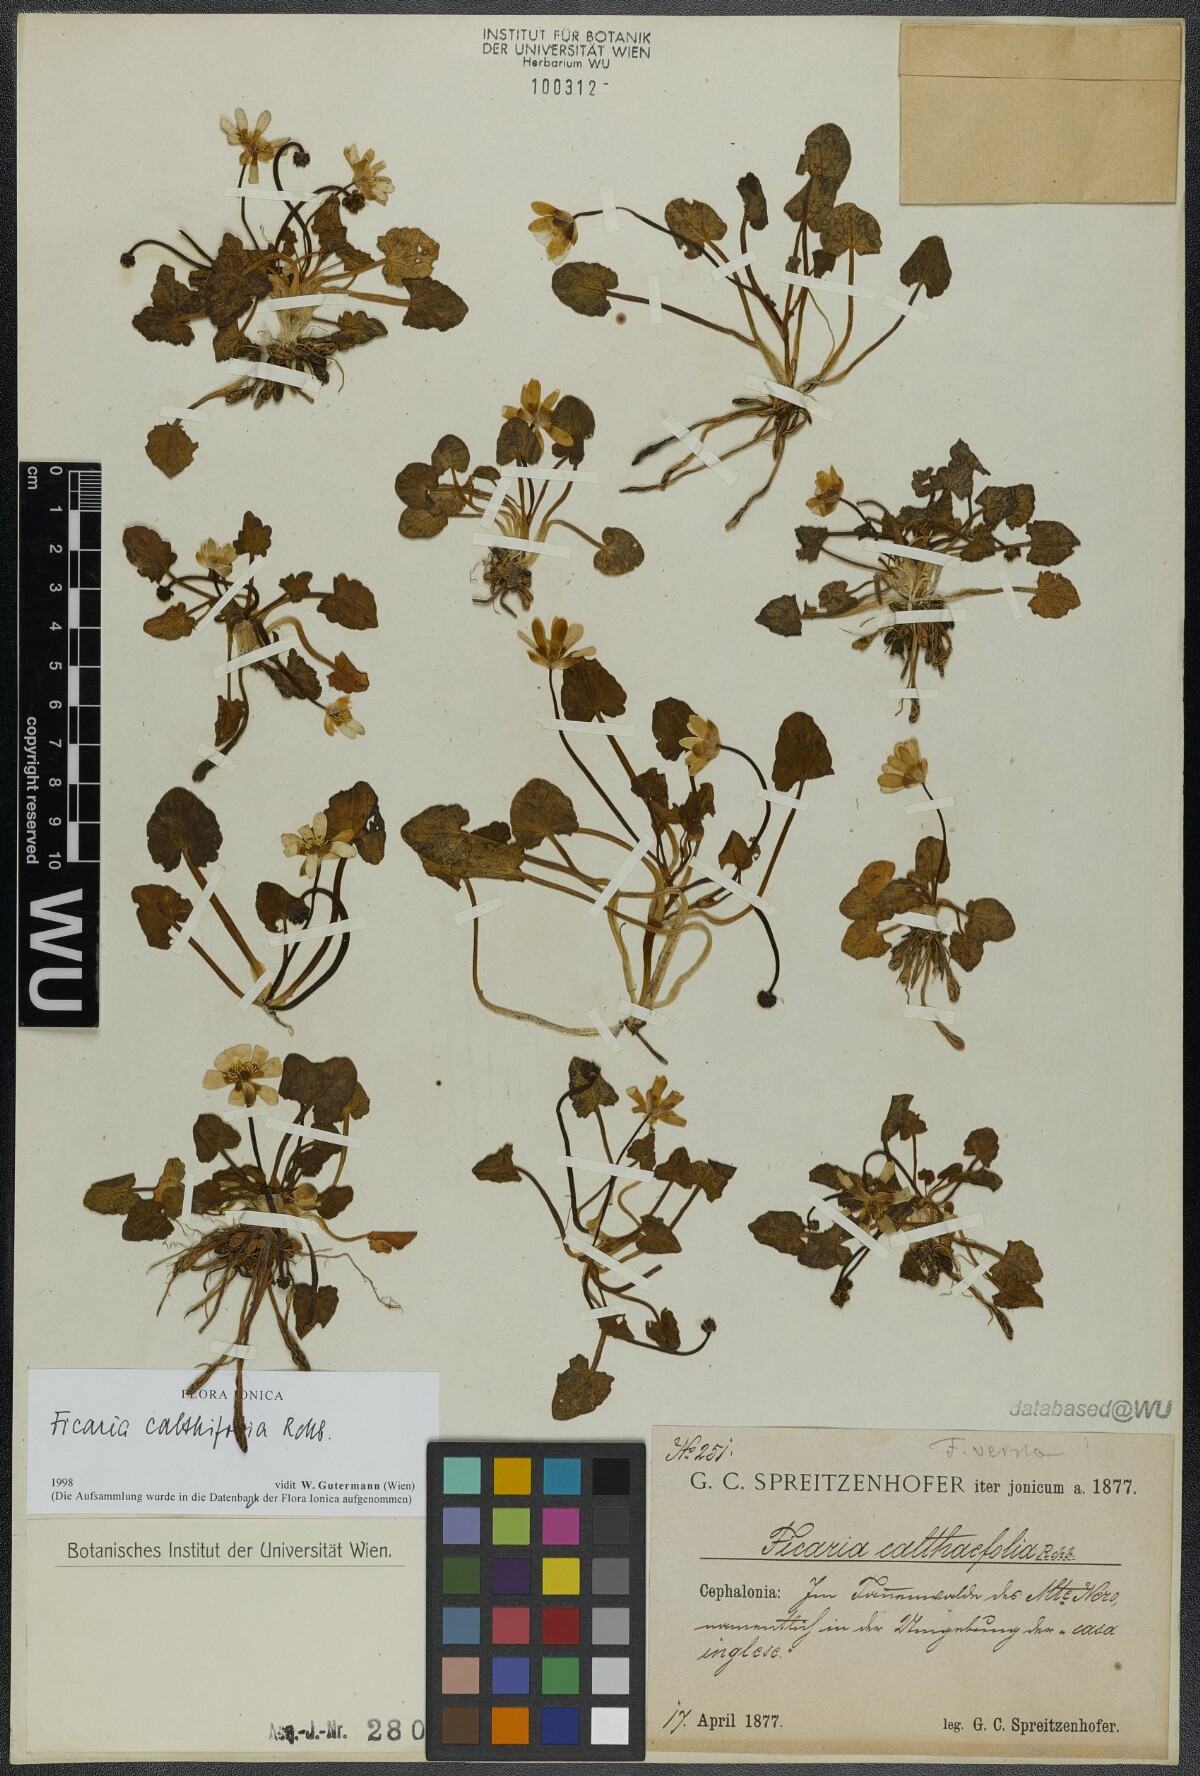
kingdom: Plantae
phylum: Tracheophyta
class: Magnoliopsida
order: Ranunculales
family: Ranunculaceae
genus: Ficaria
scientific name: Ficaria calthifolia
